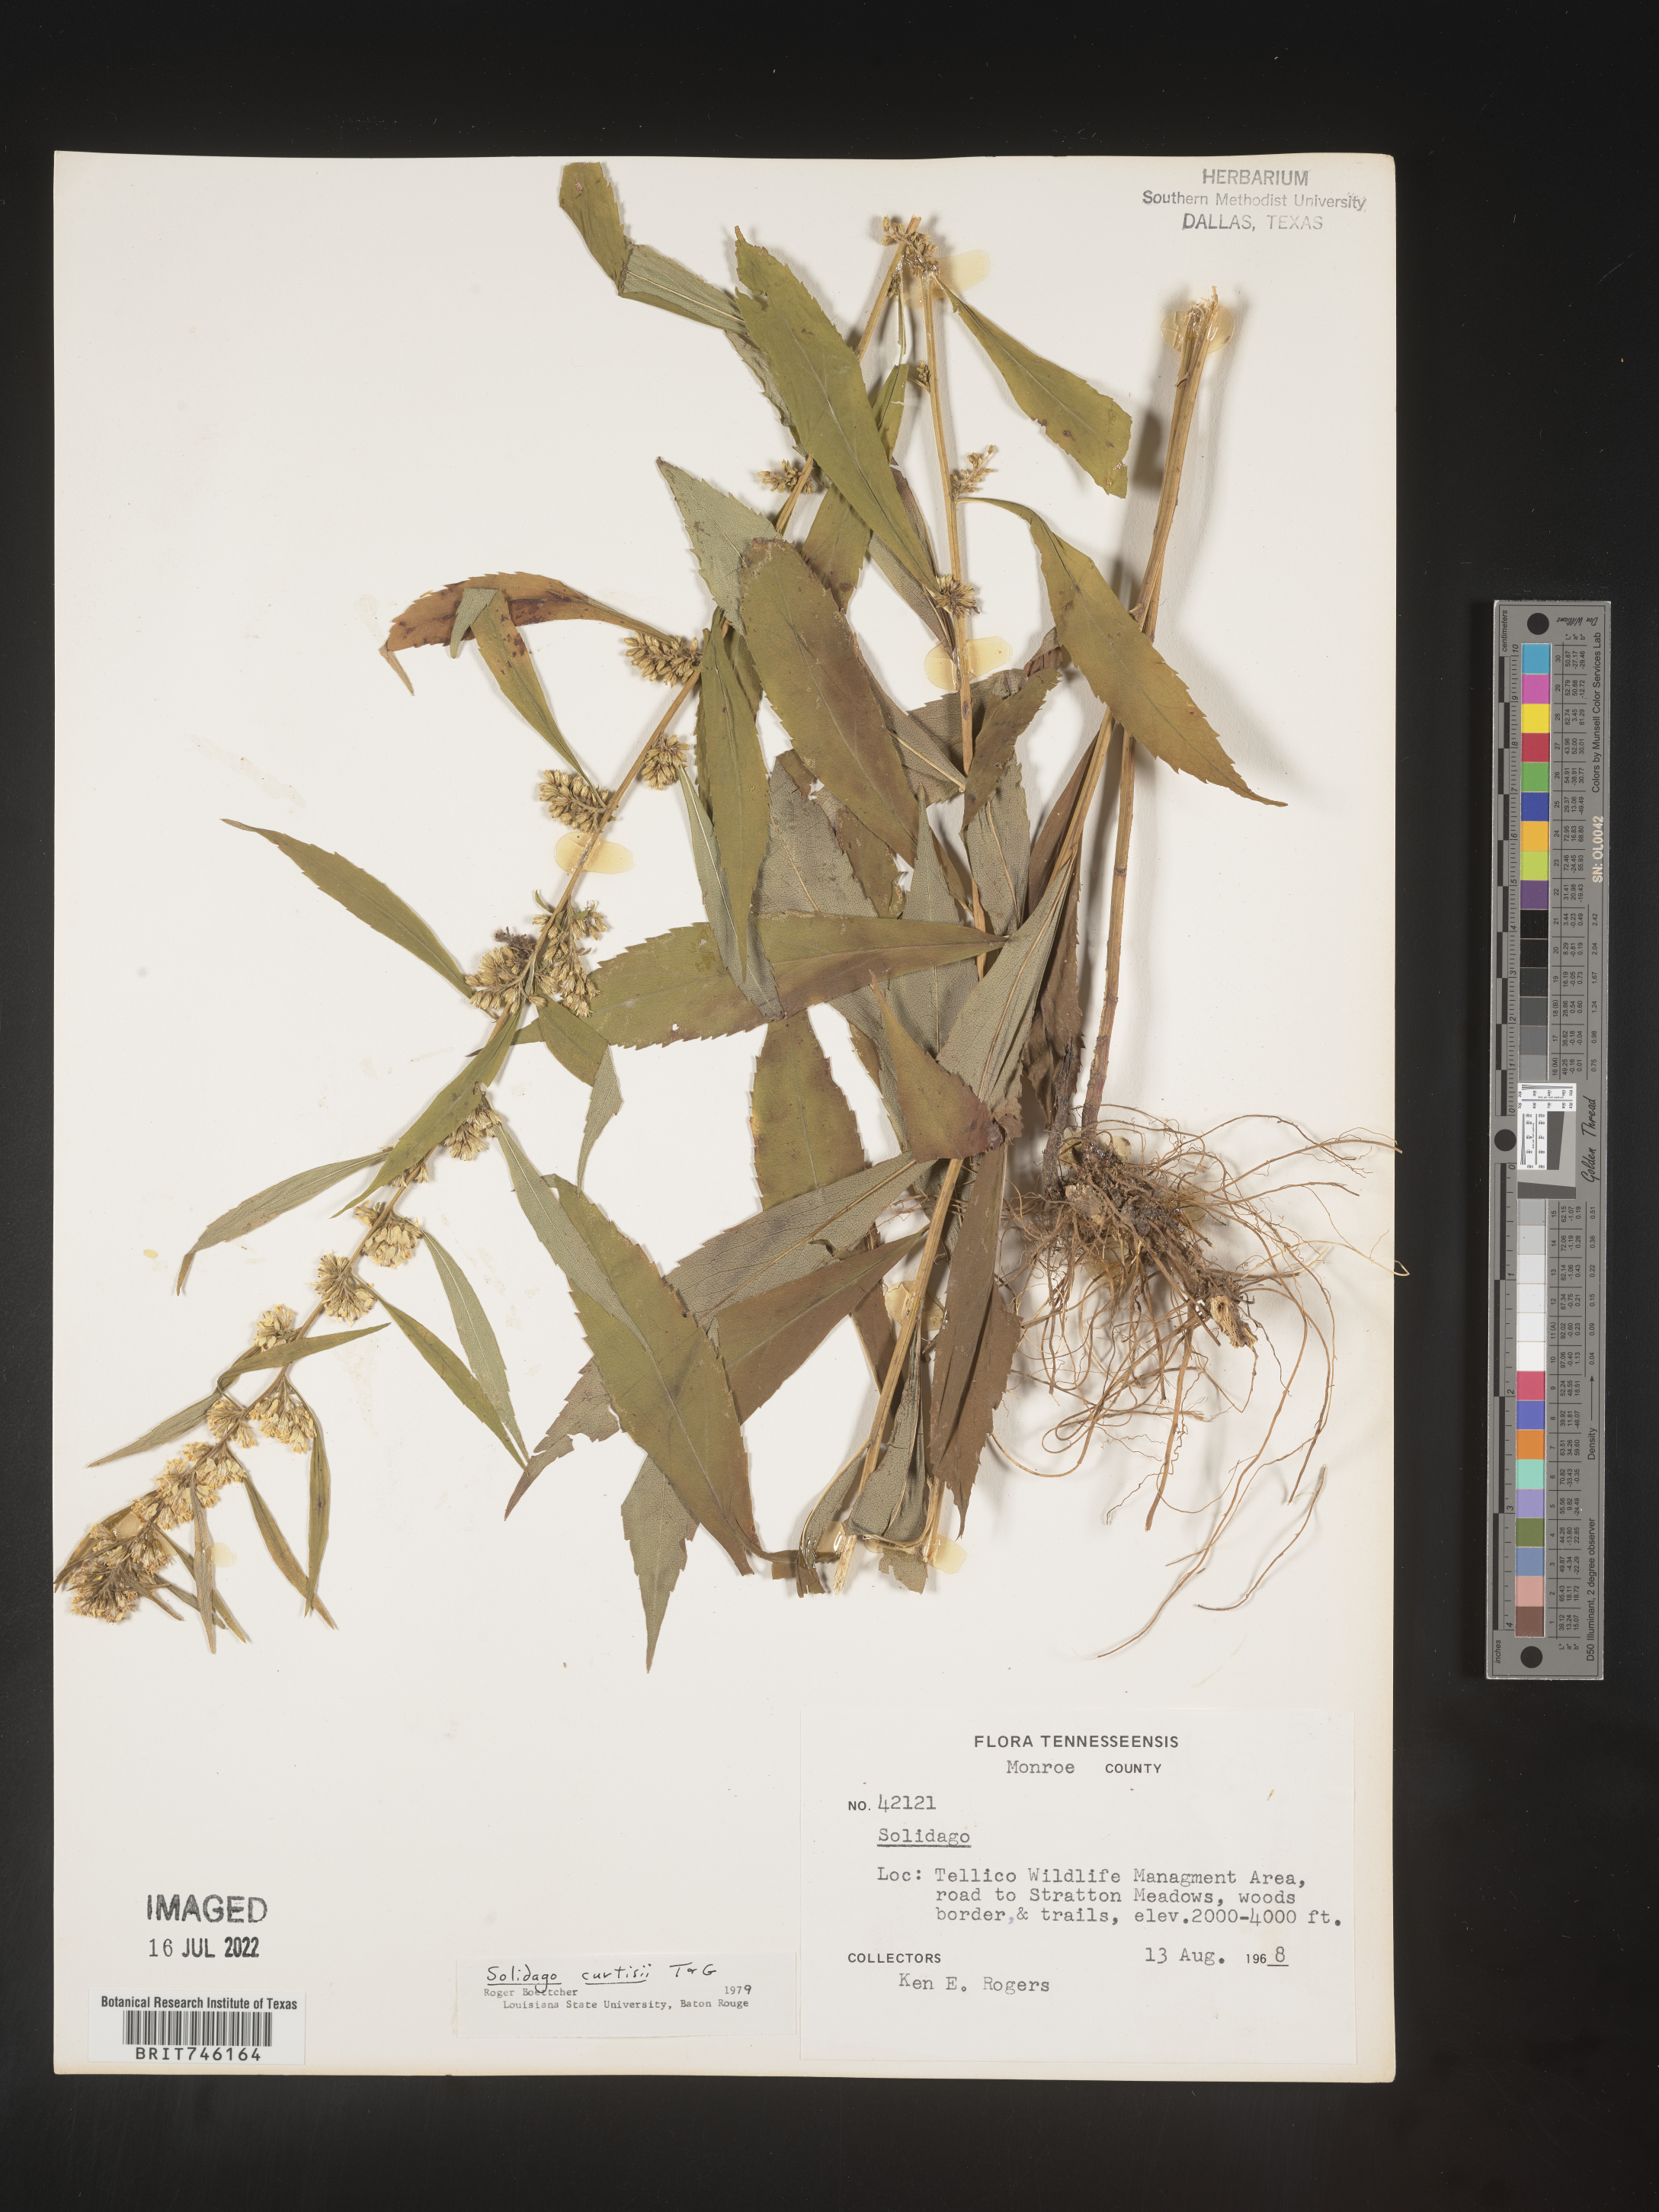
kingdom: Plantae
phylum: Tracheophyta
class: Magnoliopsida
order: Asterales
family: Asteraceae
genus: Solidago
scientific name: Solidago curtisii
